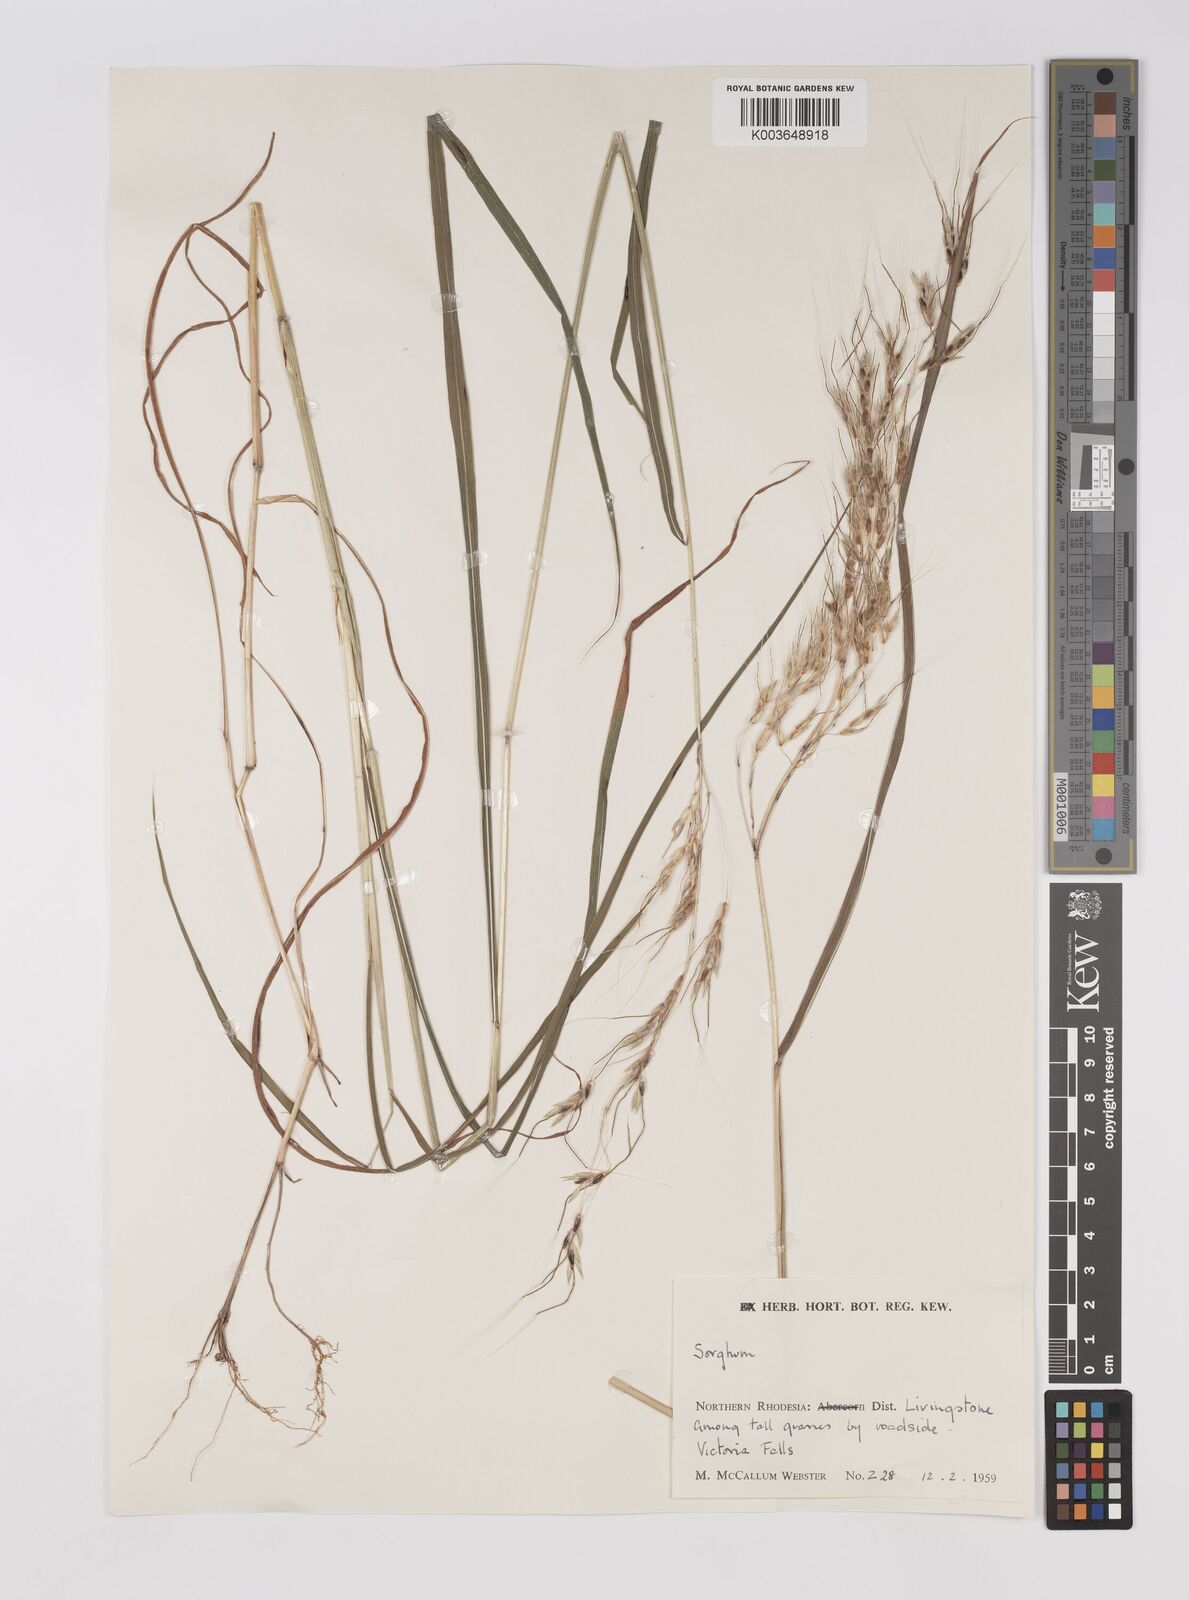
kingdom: Plantae
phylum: Tracheophyta
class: Liliopsida
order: Poales
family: Poaceae
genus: Sarga
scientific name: Sarga versicolor
